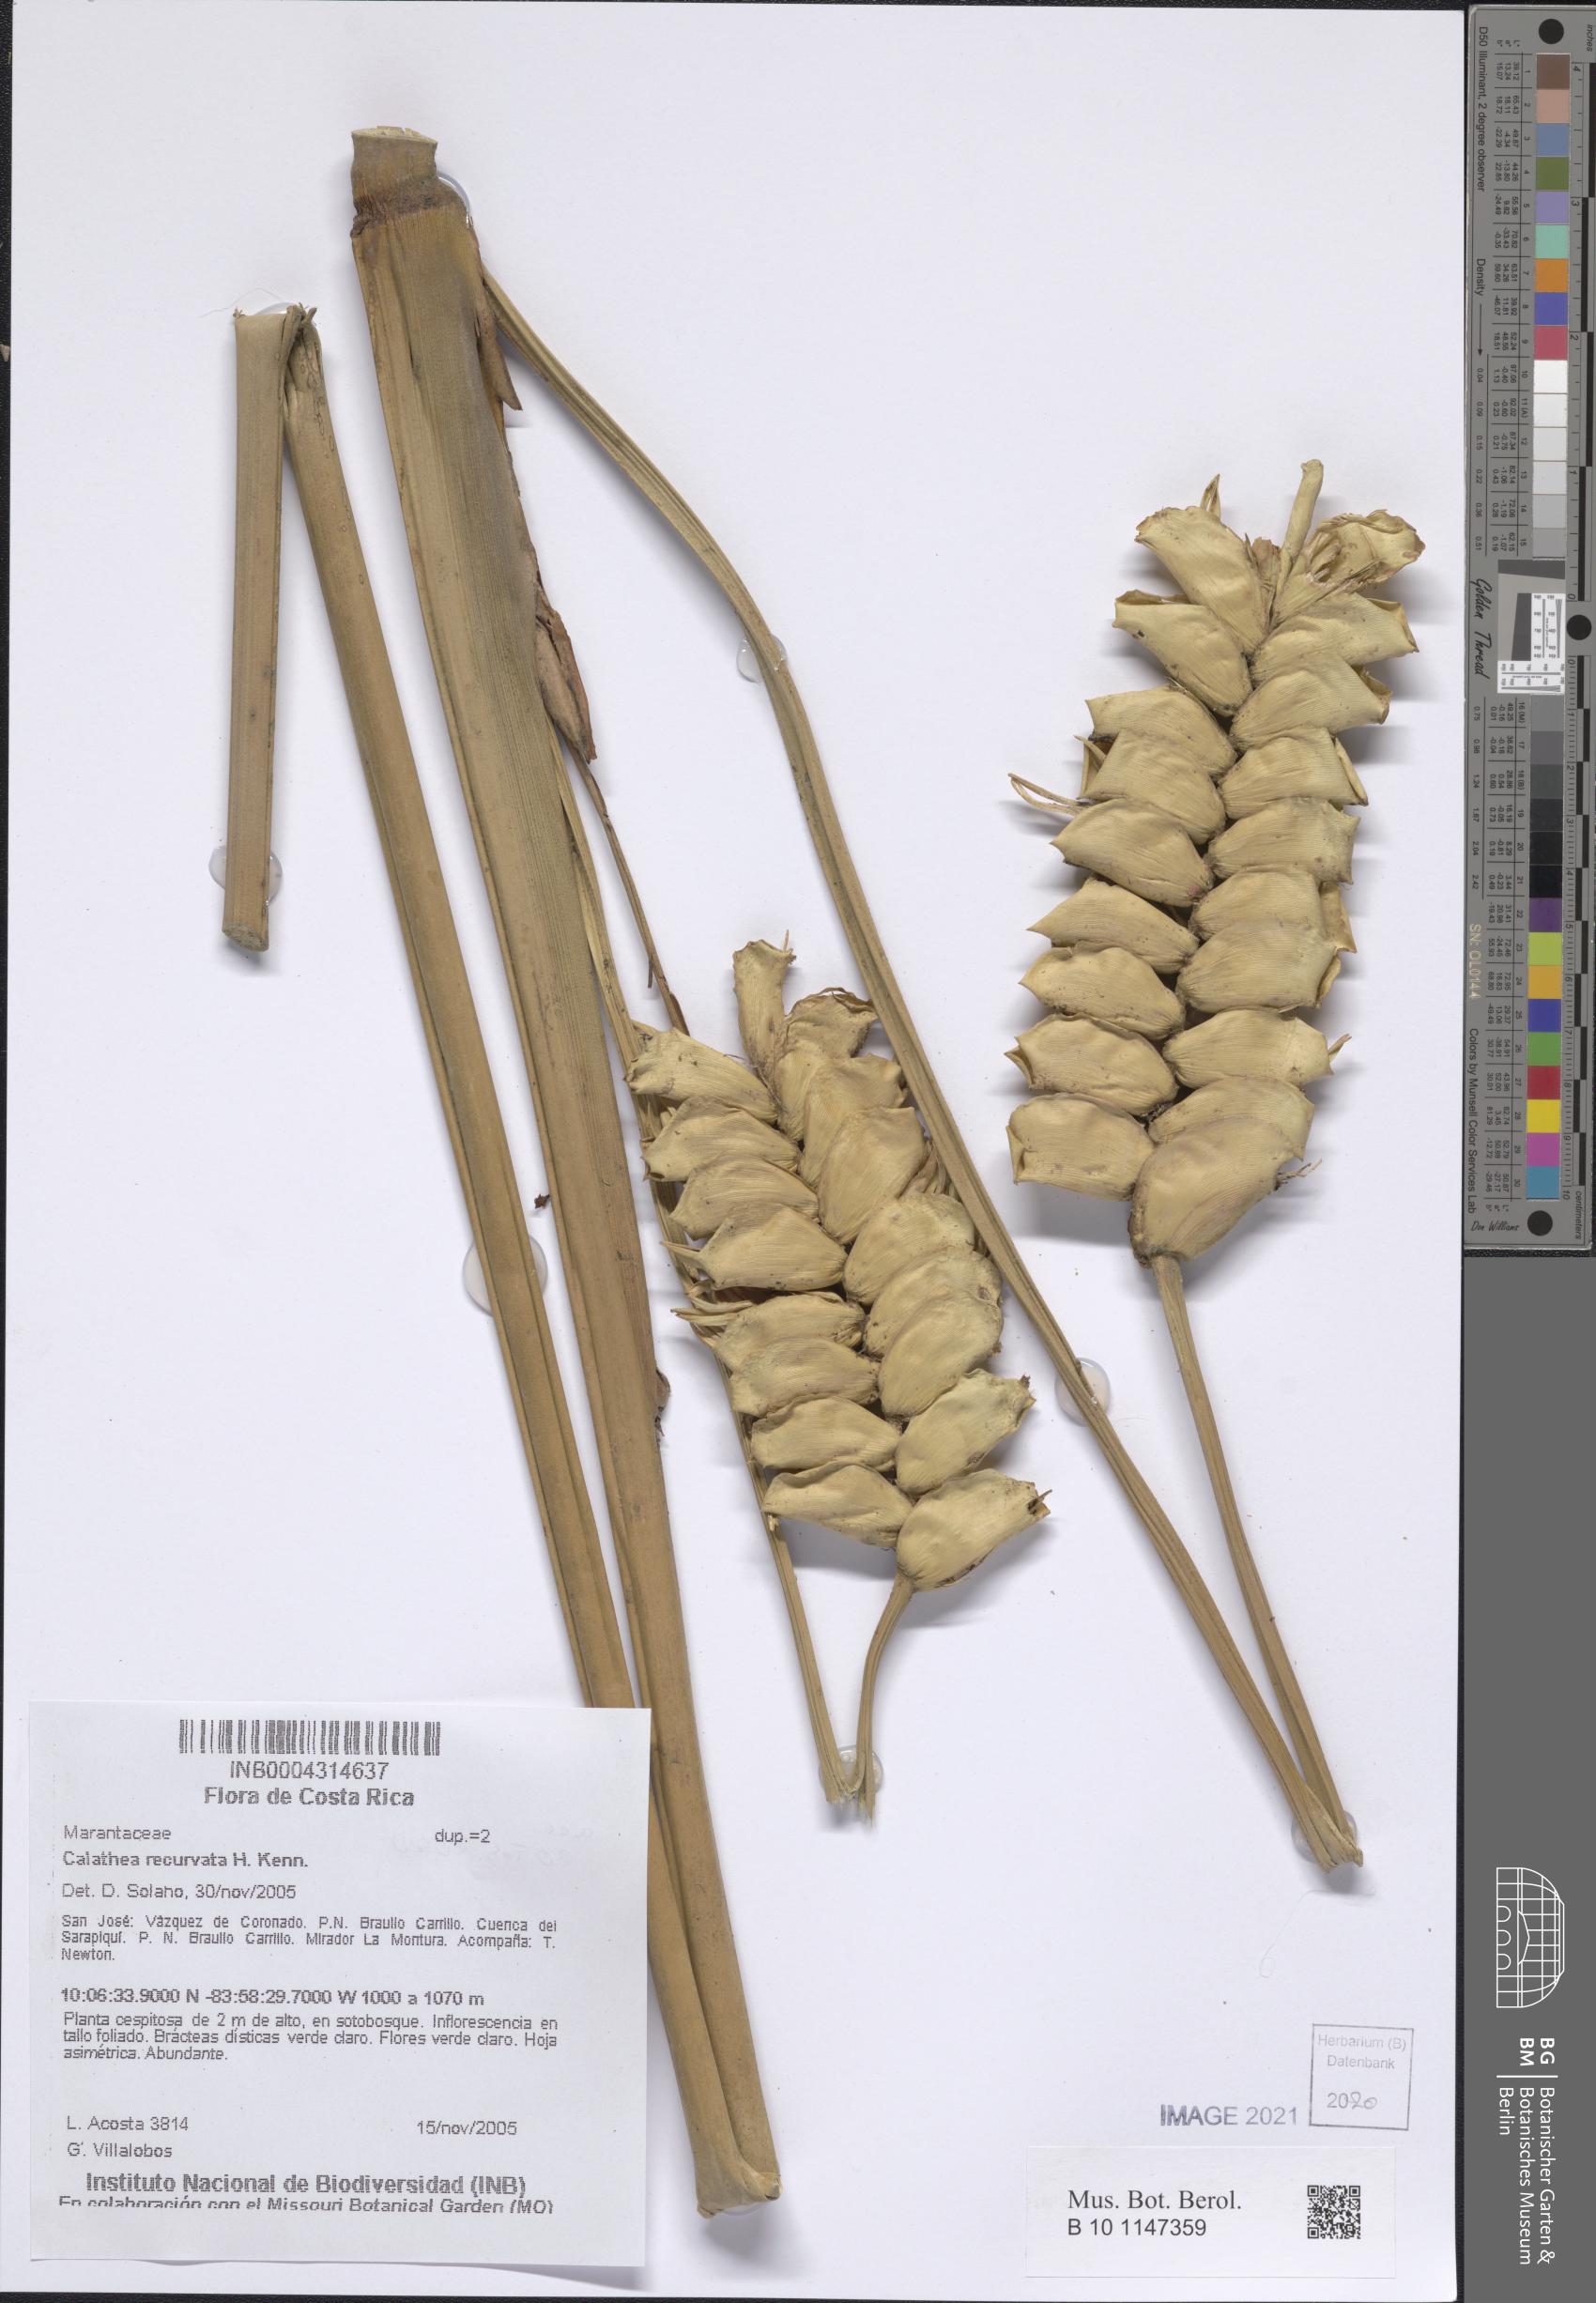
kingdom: Plantae
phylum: Tracheophyta
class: Liliopsida
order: Zingiberales
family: Marantaceae
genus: Calathea
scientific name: Calathea recurvata
